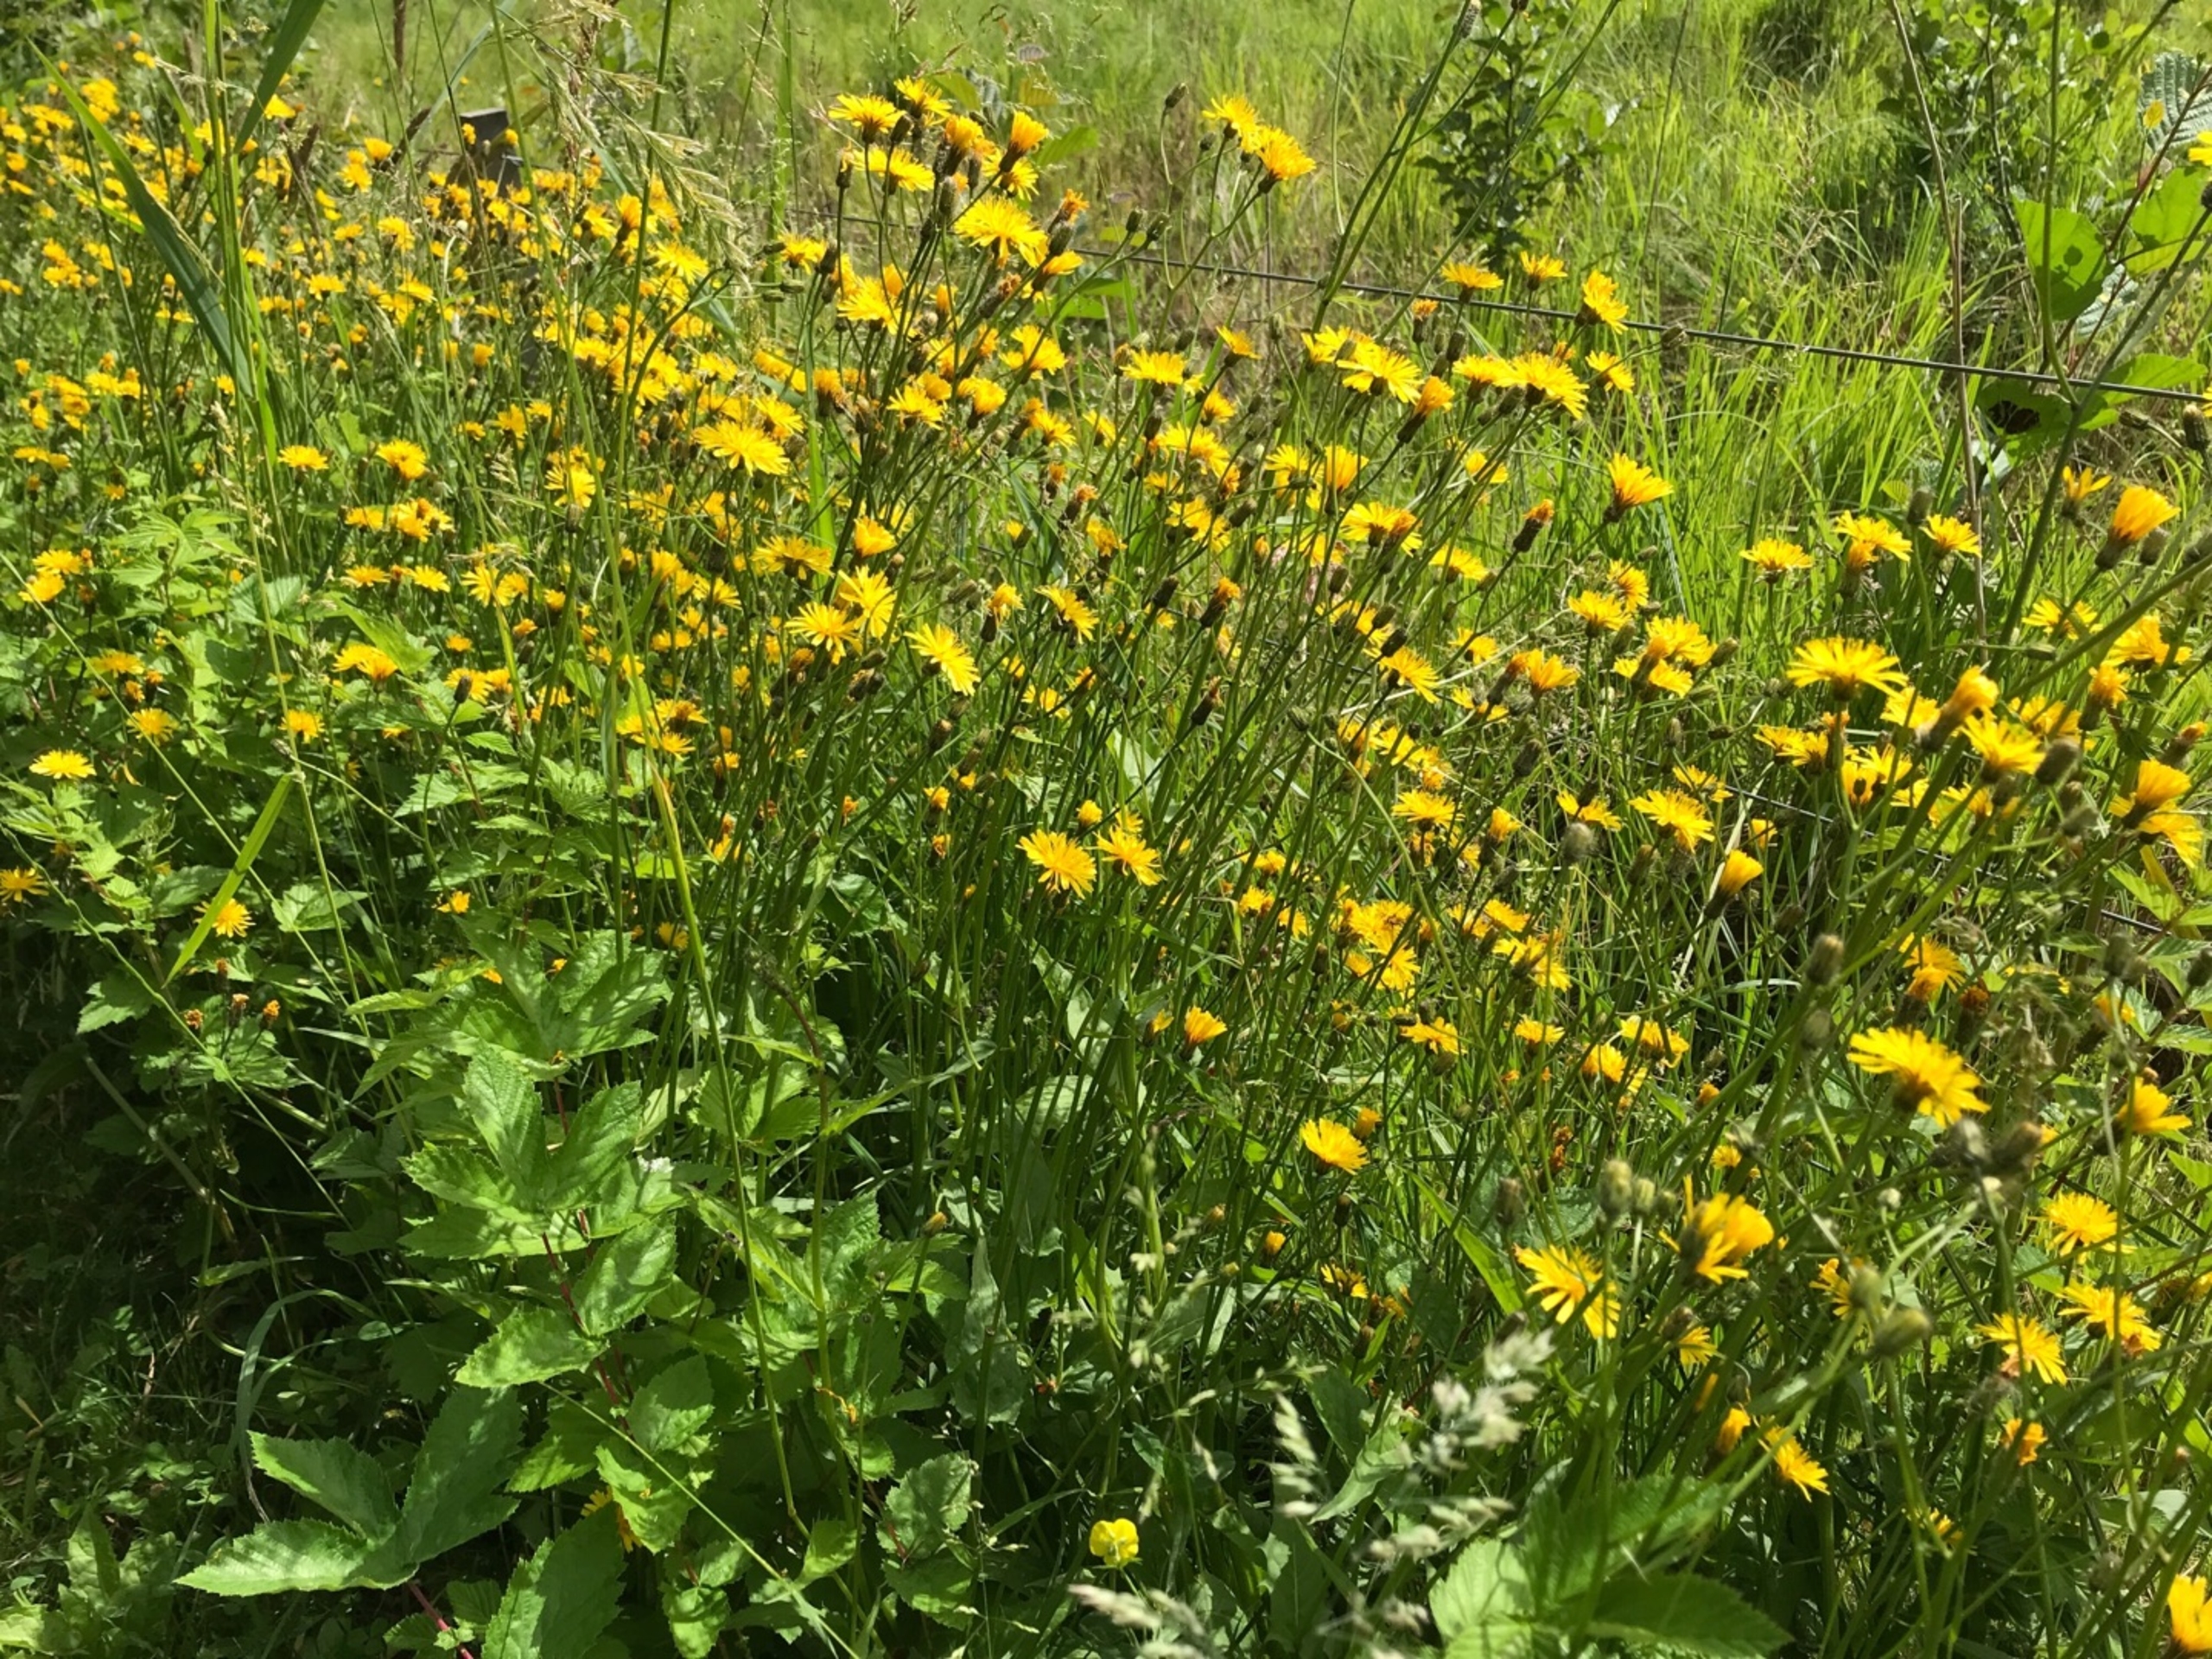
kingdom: Plantae
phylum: Tracheophyta
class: Magnoliopsida
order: Asterales
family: Asteraceae
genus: Crepis
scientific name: Crepis paludosa
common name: Kær-høgeskæg
